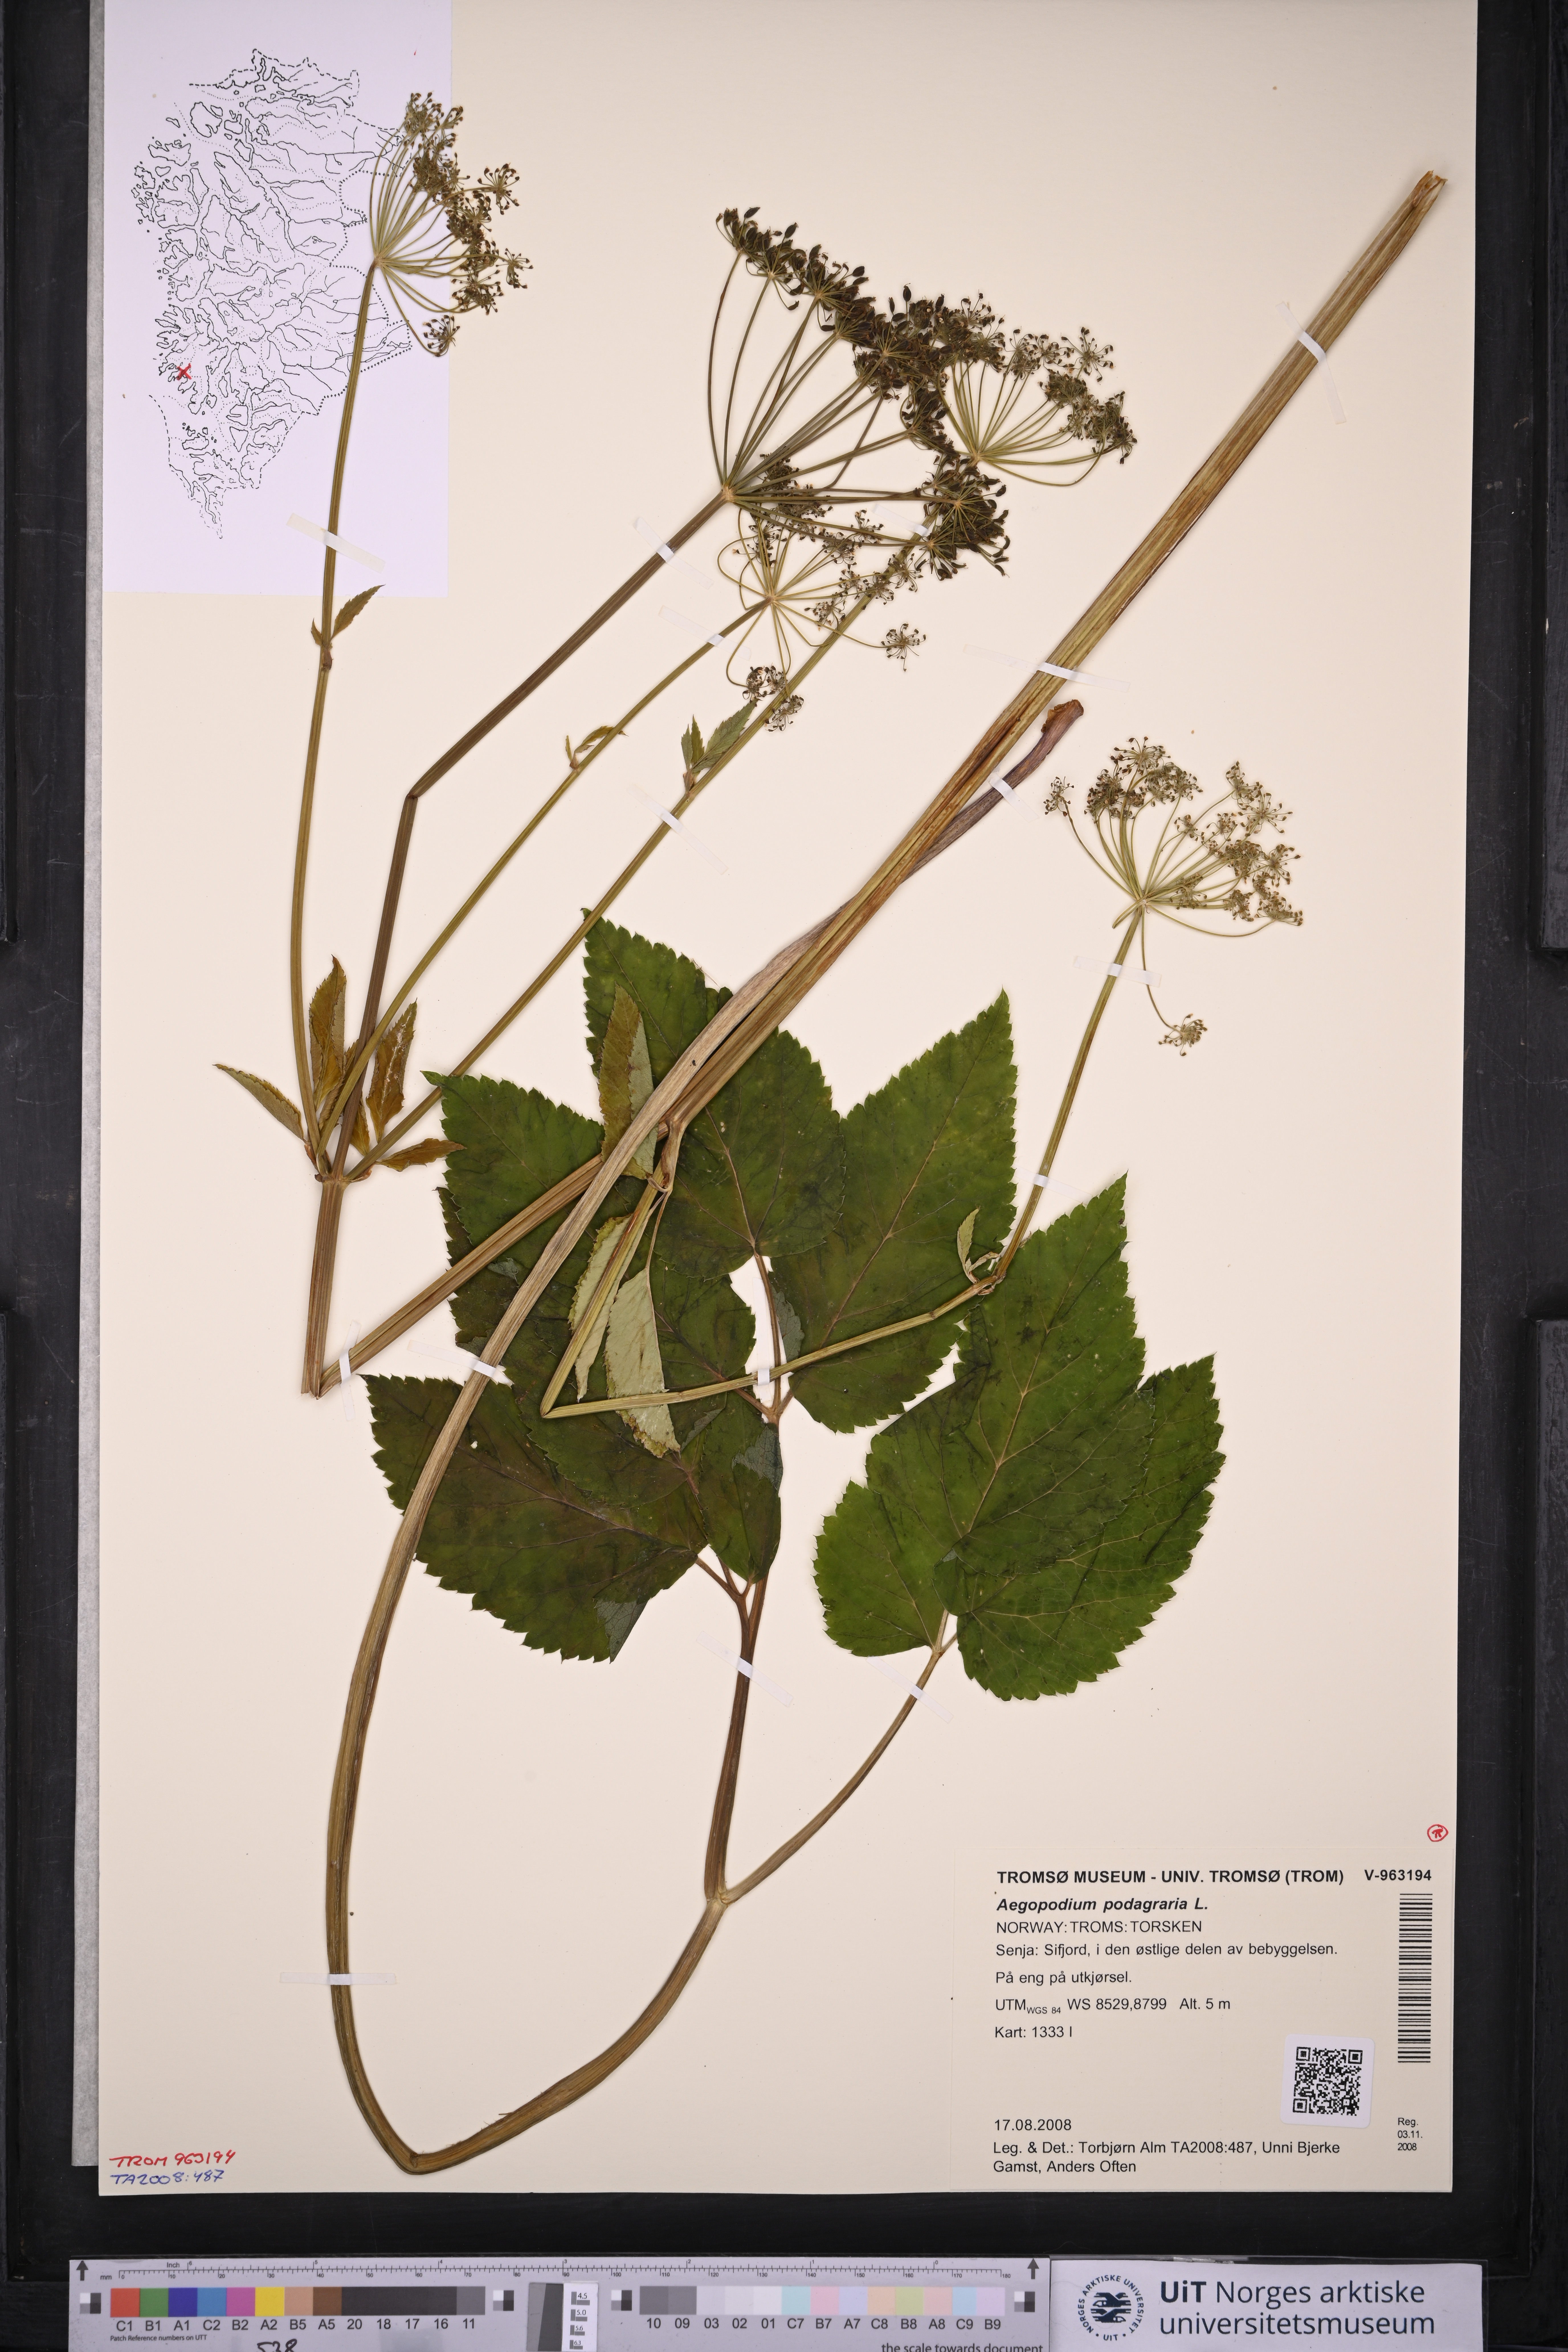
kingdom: Plantae
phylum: Tracheophyta
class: Magnoliopsida
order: Apiales
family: Apiaceae
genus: Aegopodium
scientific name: Aegopodium podagraria
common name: Ground-elder
